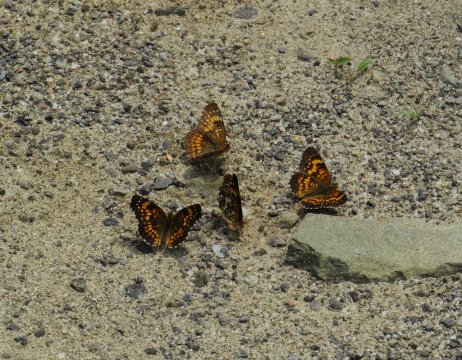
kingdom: Animalia
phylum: Arthropoda
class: Insecta
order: Lepidoptera
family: Nymphalidae
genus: Chlosyne
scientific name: Chlosyne harrisii
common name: Harris's Checkerspot
